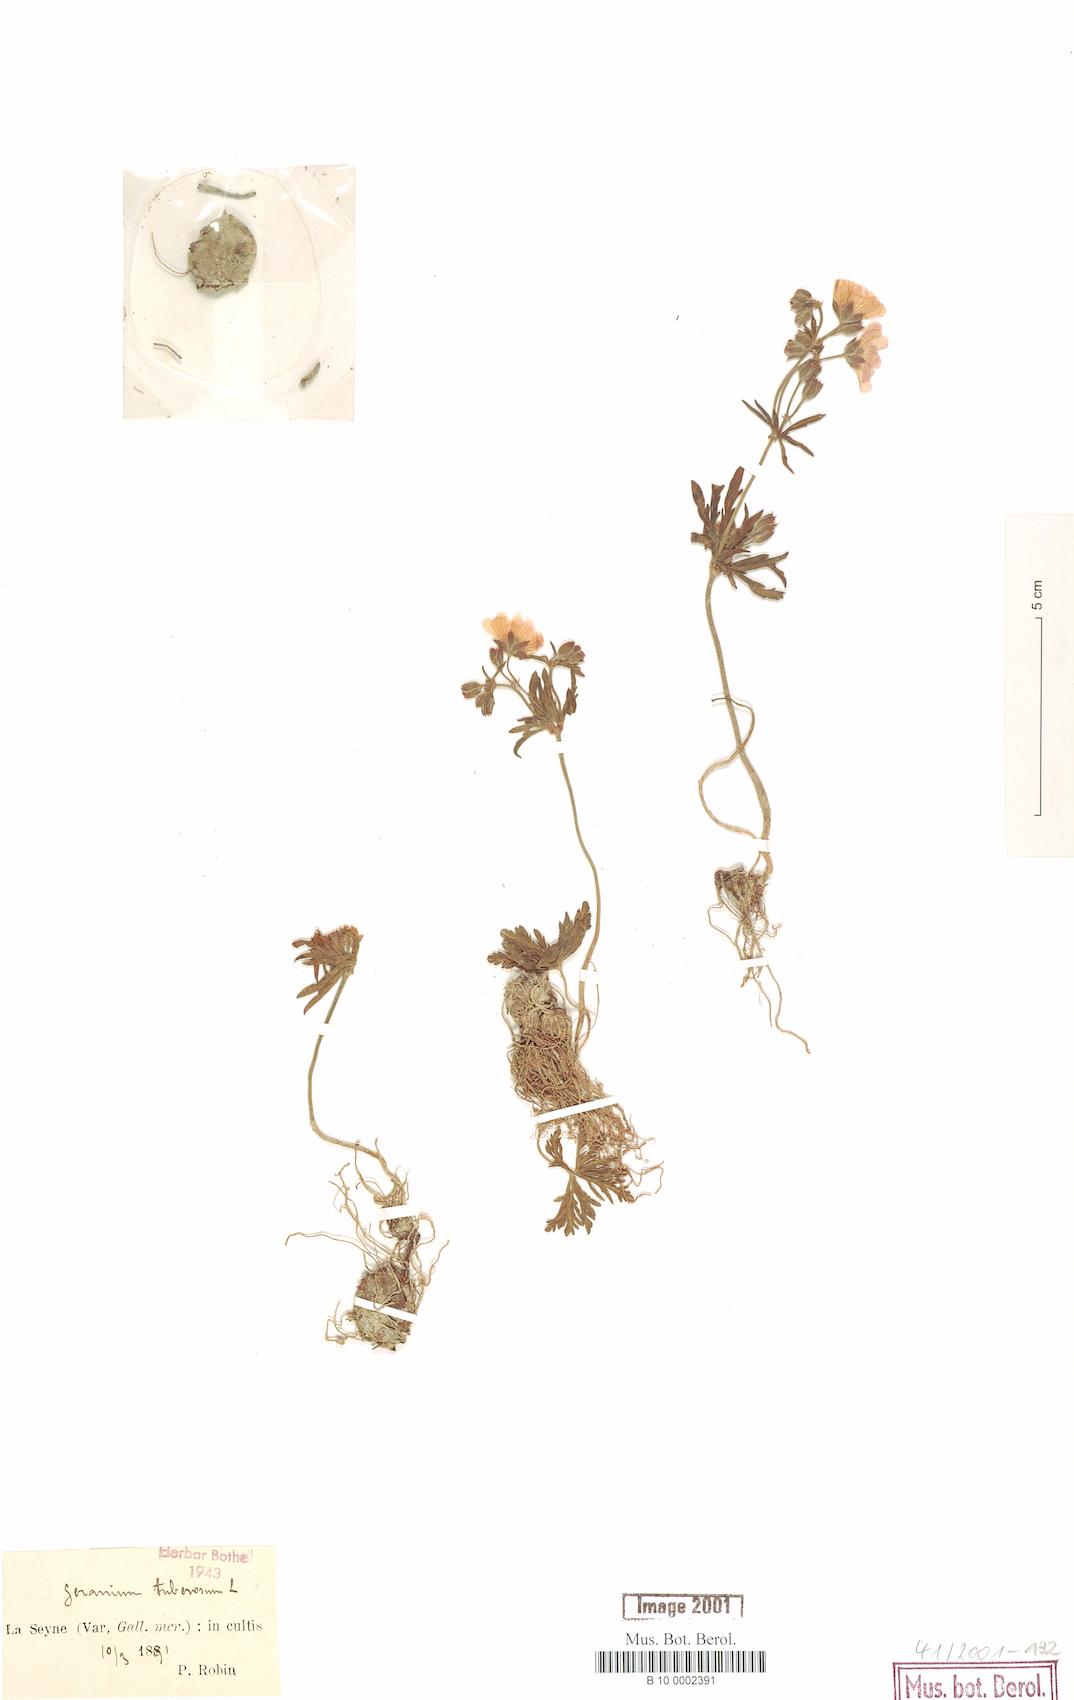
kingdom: Plantae
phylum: Tracheophyta
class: Magnoliopsida
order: Geraniales
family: Geraniaceae
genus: Geranium
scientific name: Geranium tuberosum
